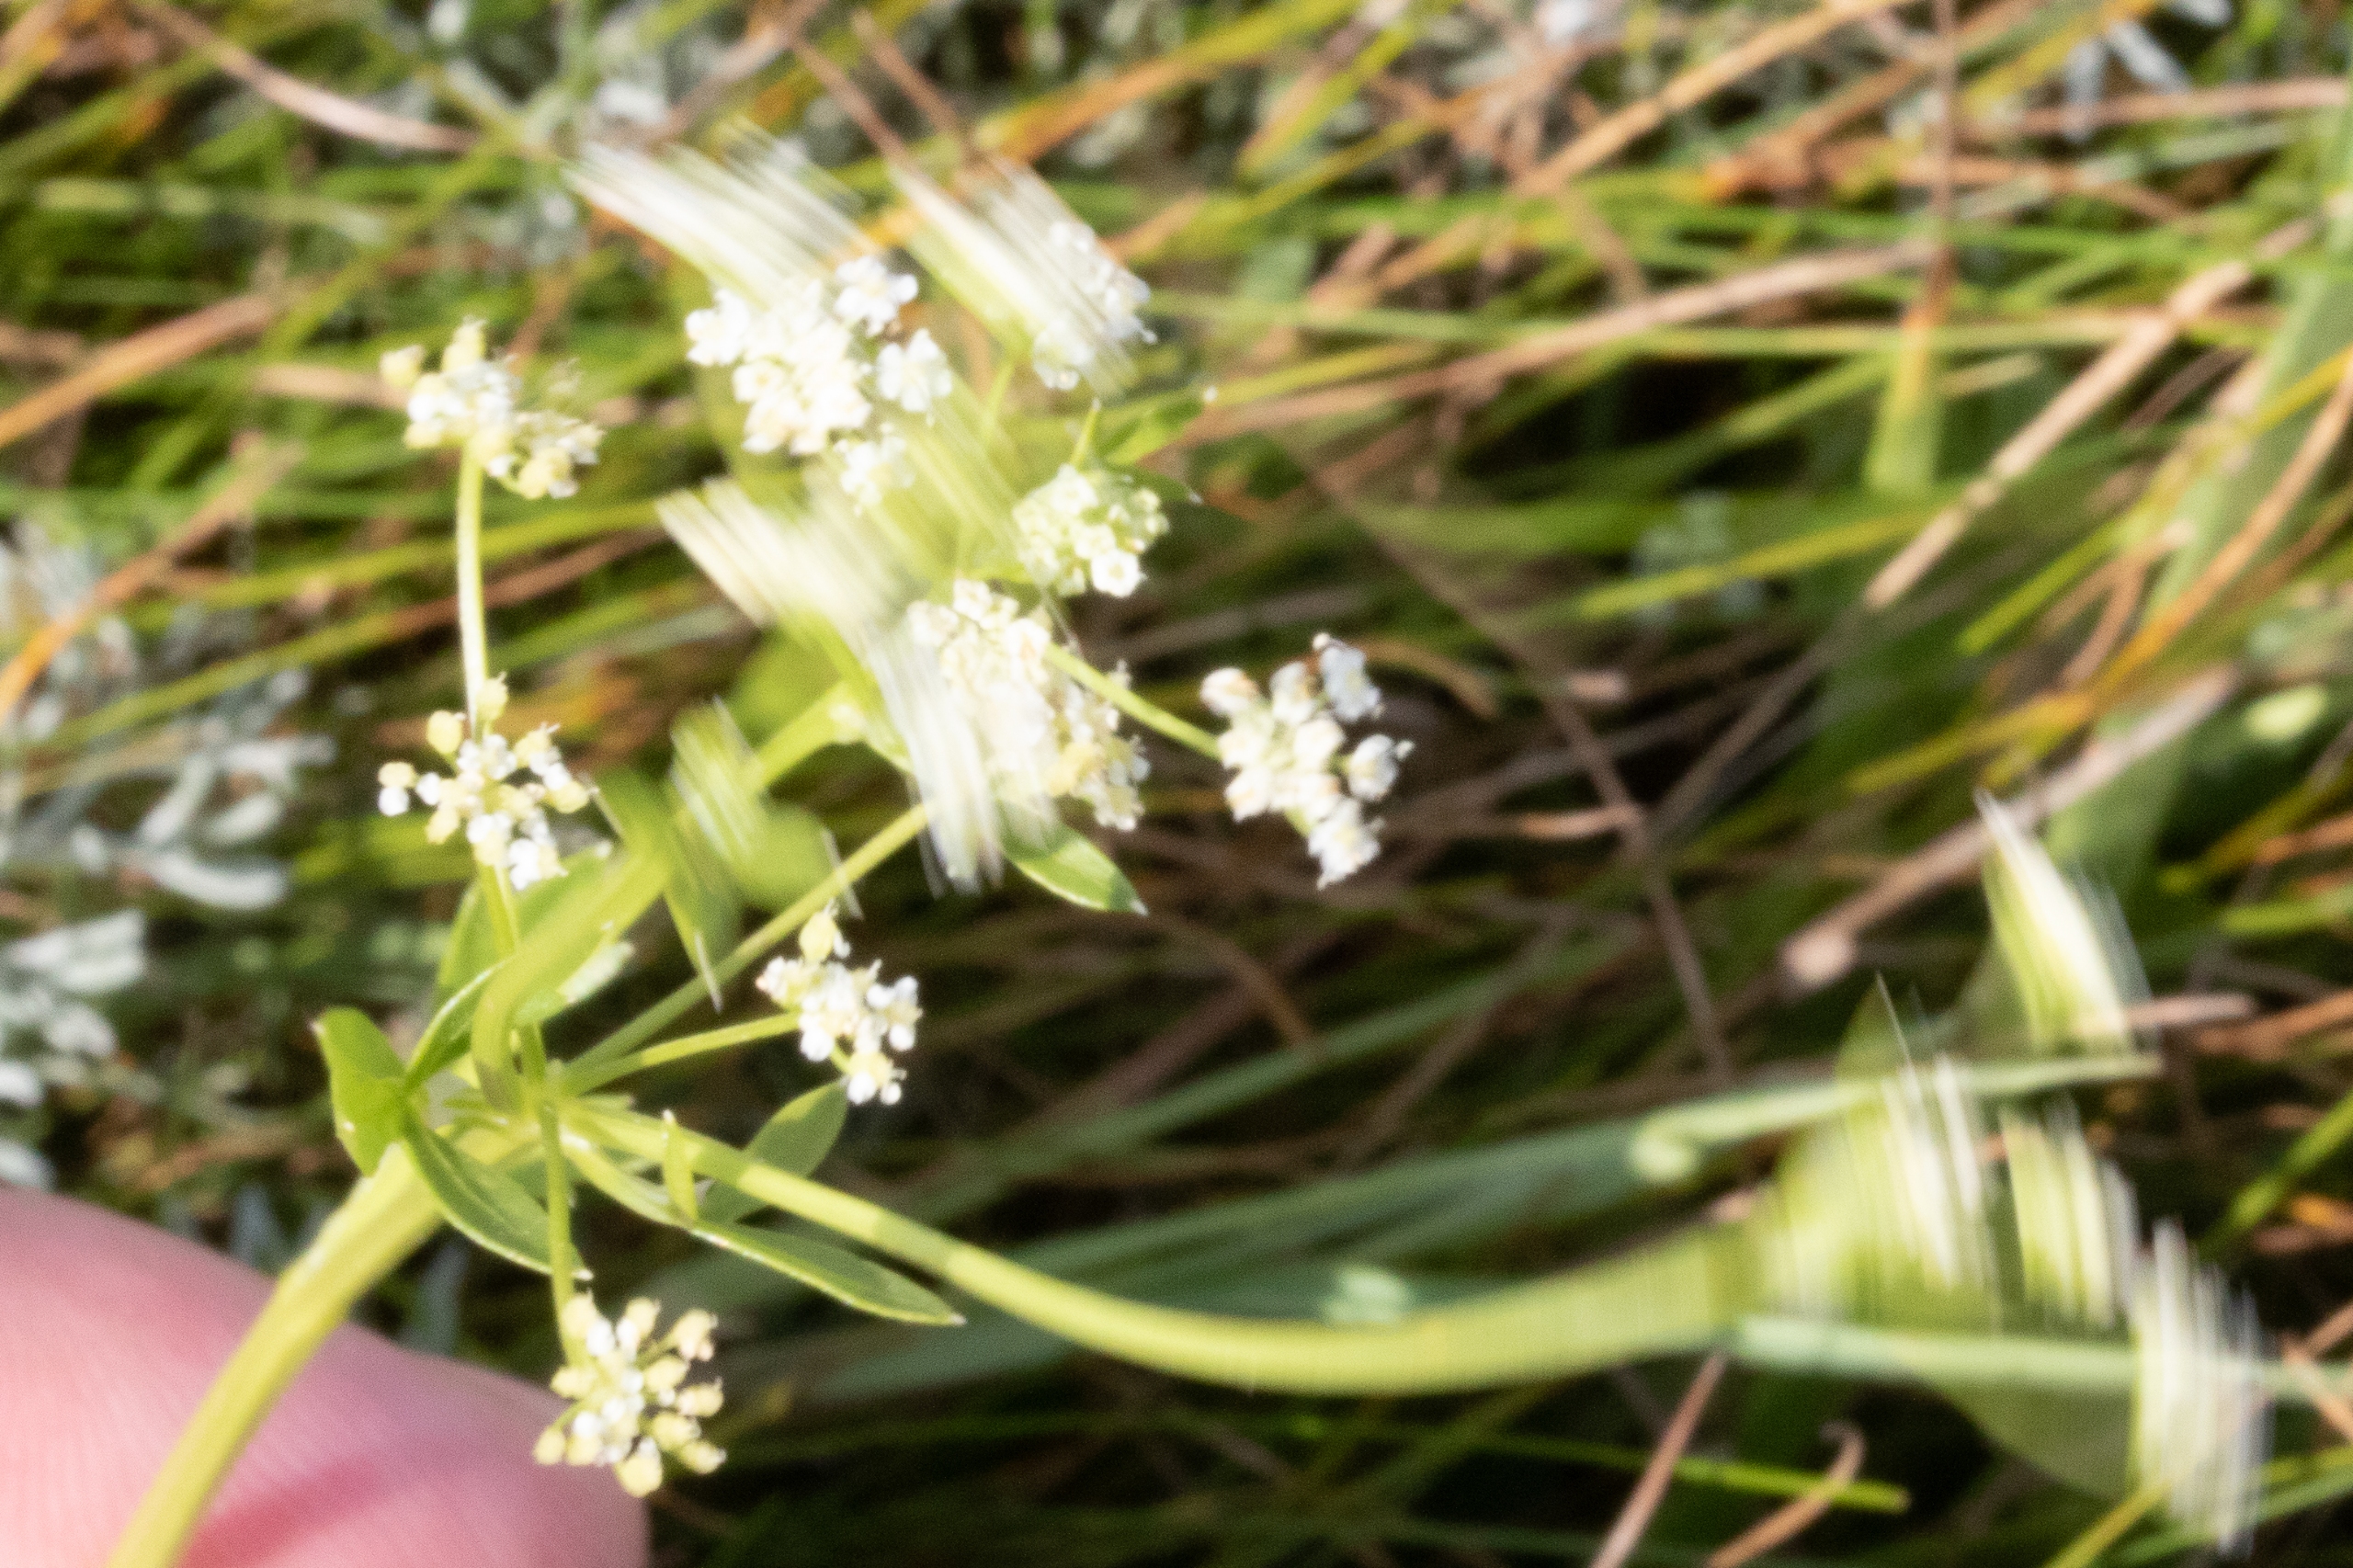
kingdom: Plantae
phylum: Tracheophyta
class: Magnoliopsida
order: Gentianales
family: Rubiaceae
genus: Galium
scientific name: Galium palustre
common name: Kær-snerre
